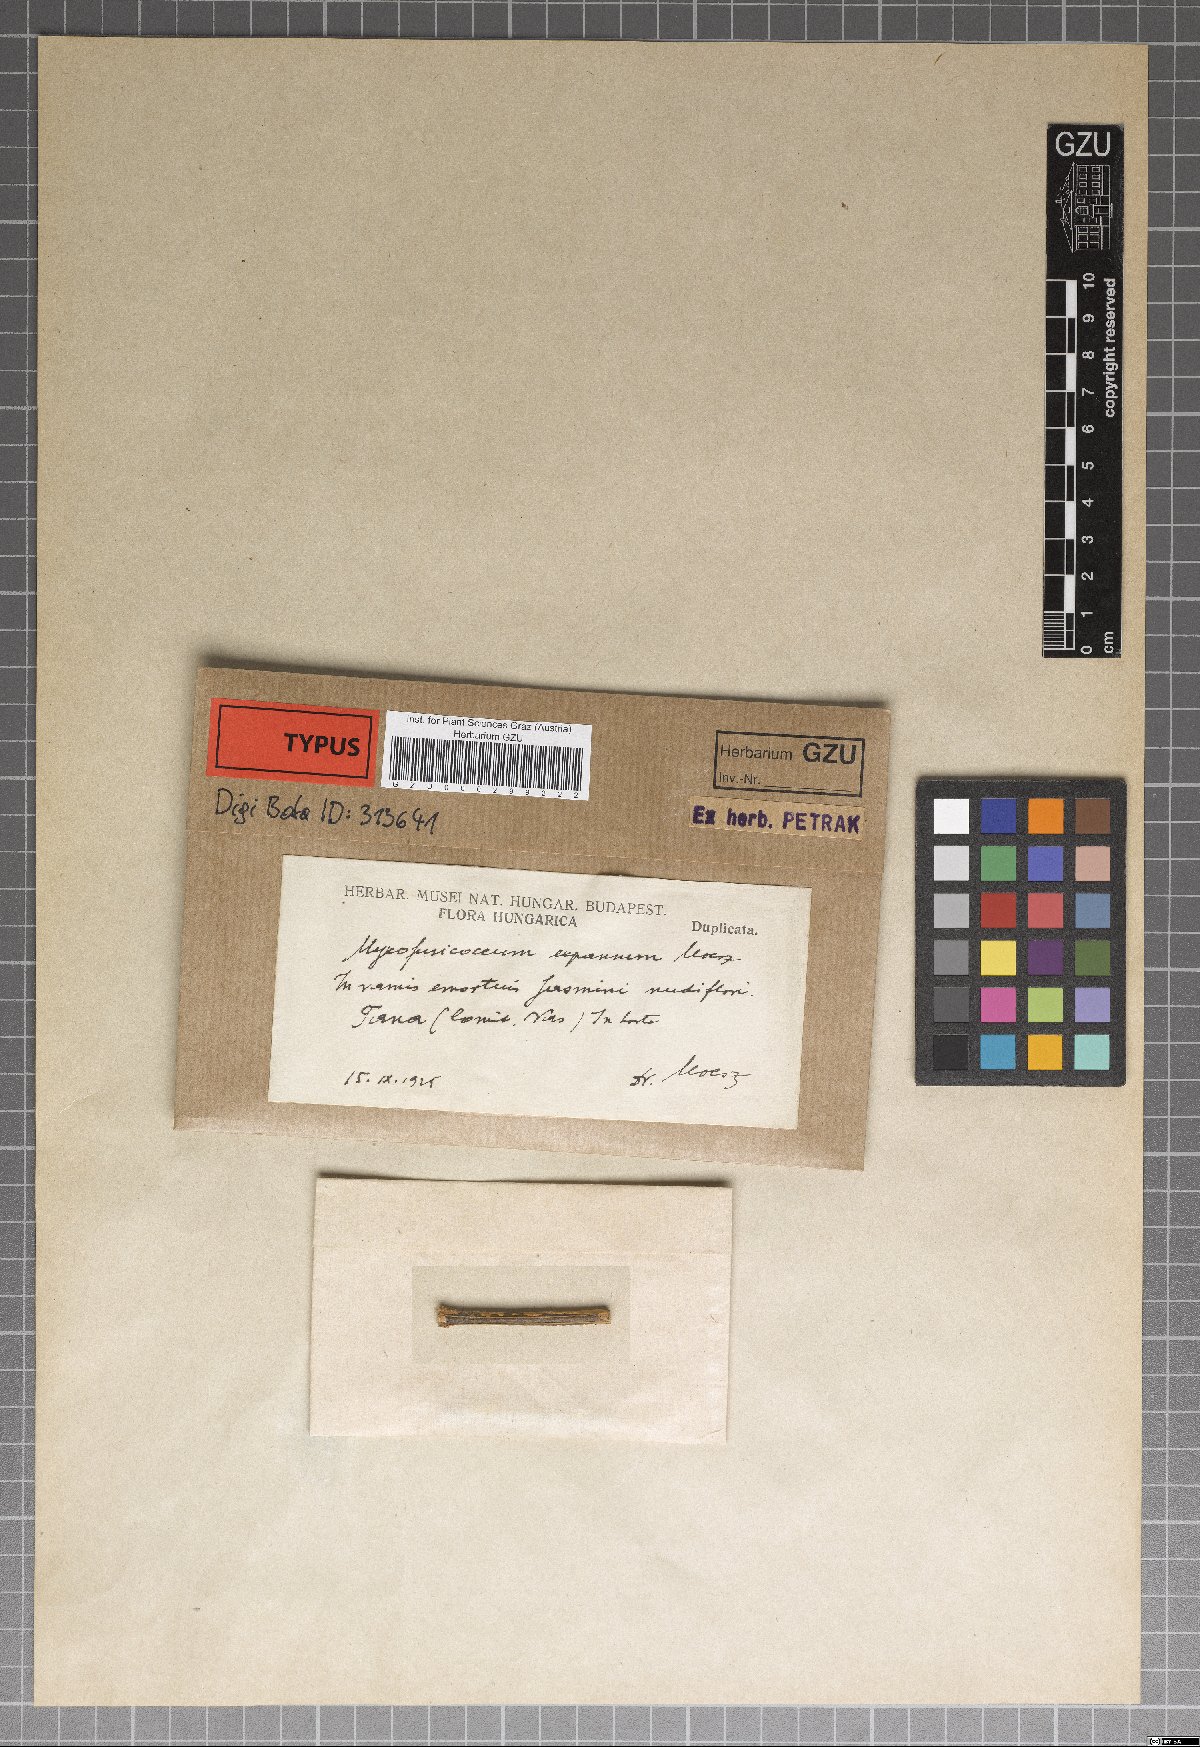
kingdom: Fungi
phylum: Ascomycota
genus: Myxofusicoccum
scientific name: Myxofusicoccum
